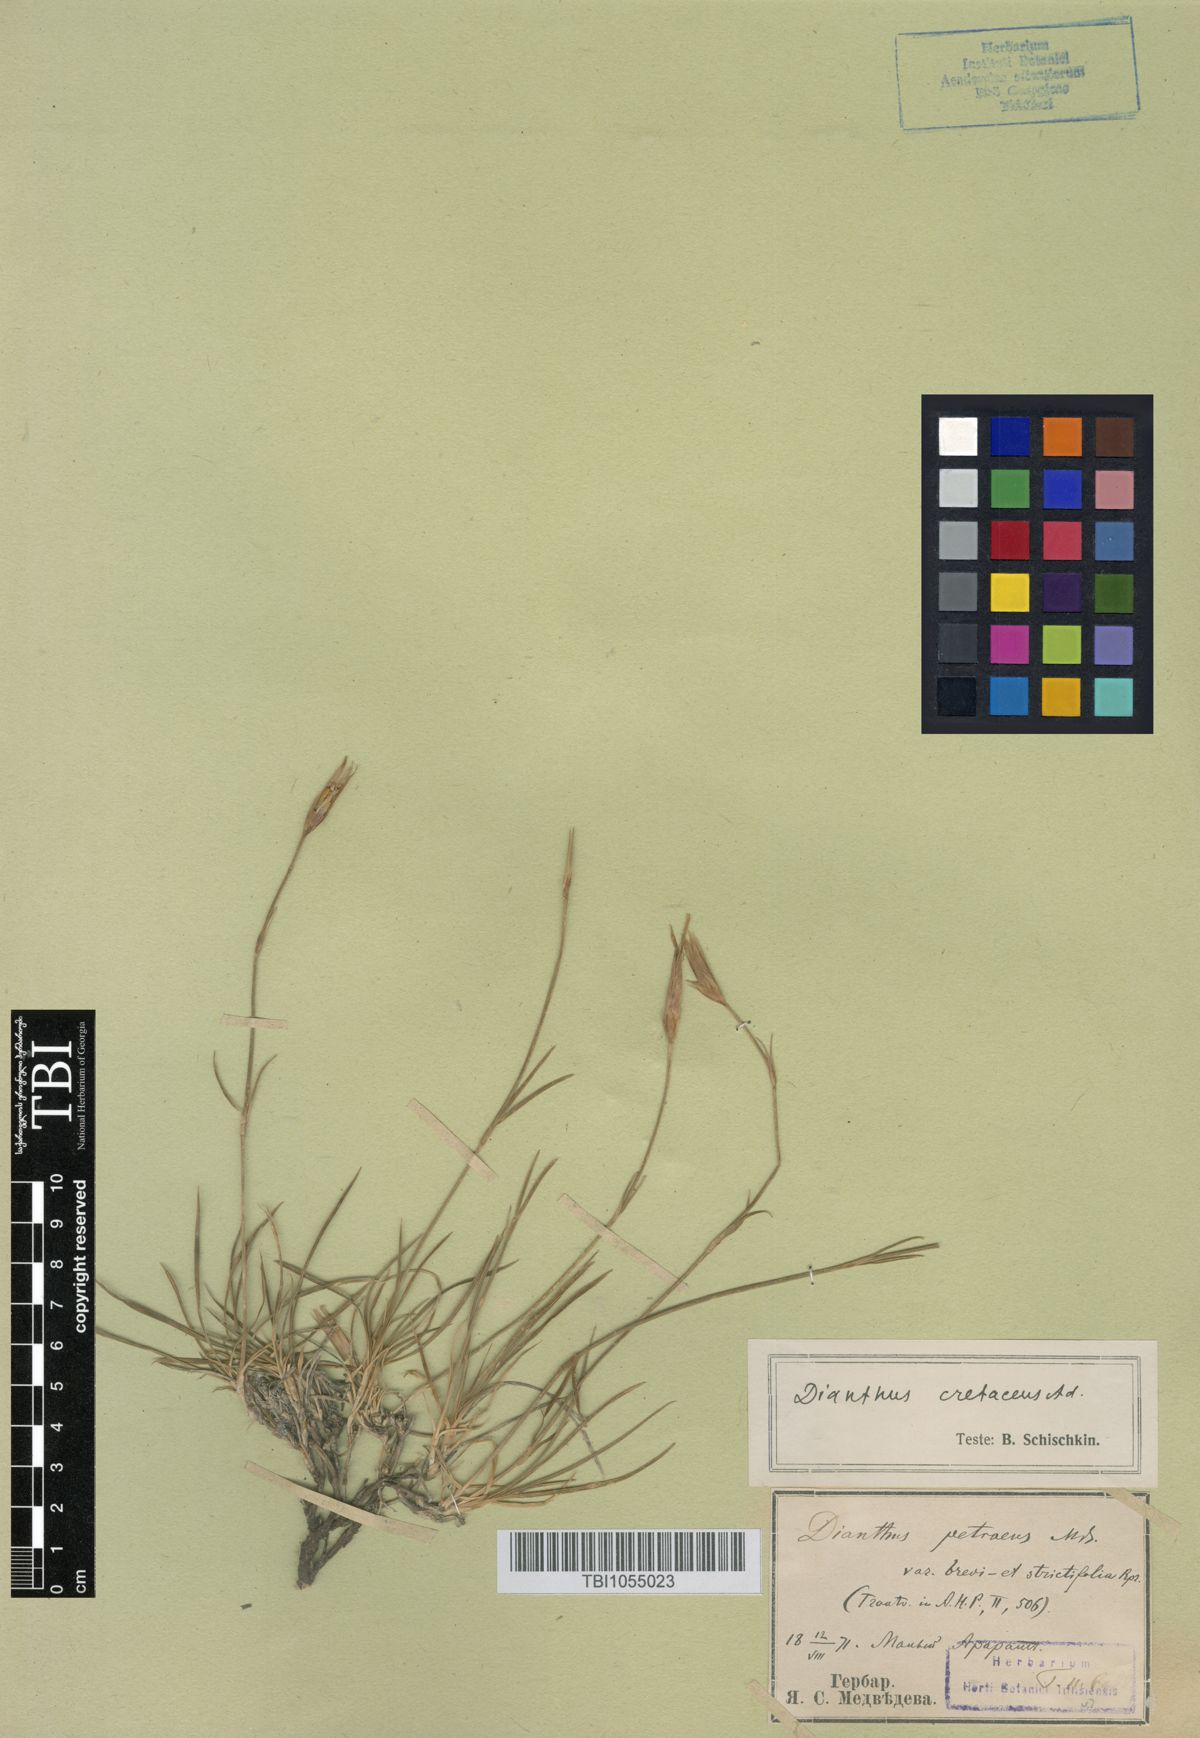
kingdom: Plantae
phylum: Tracheophyta
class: Magnoliopsida
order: Caryophyllales
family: Caryophyllaceae
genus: Dianthus
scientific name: Dianthus cretaceus
